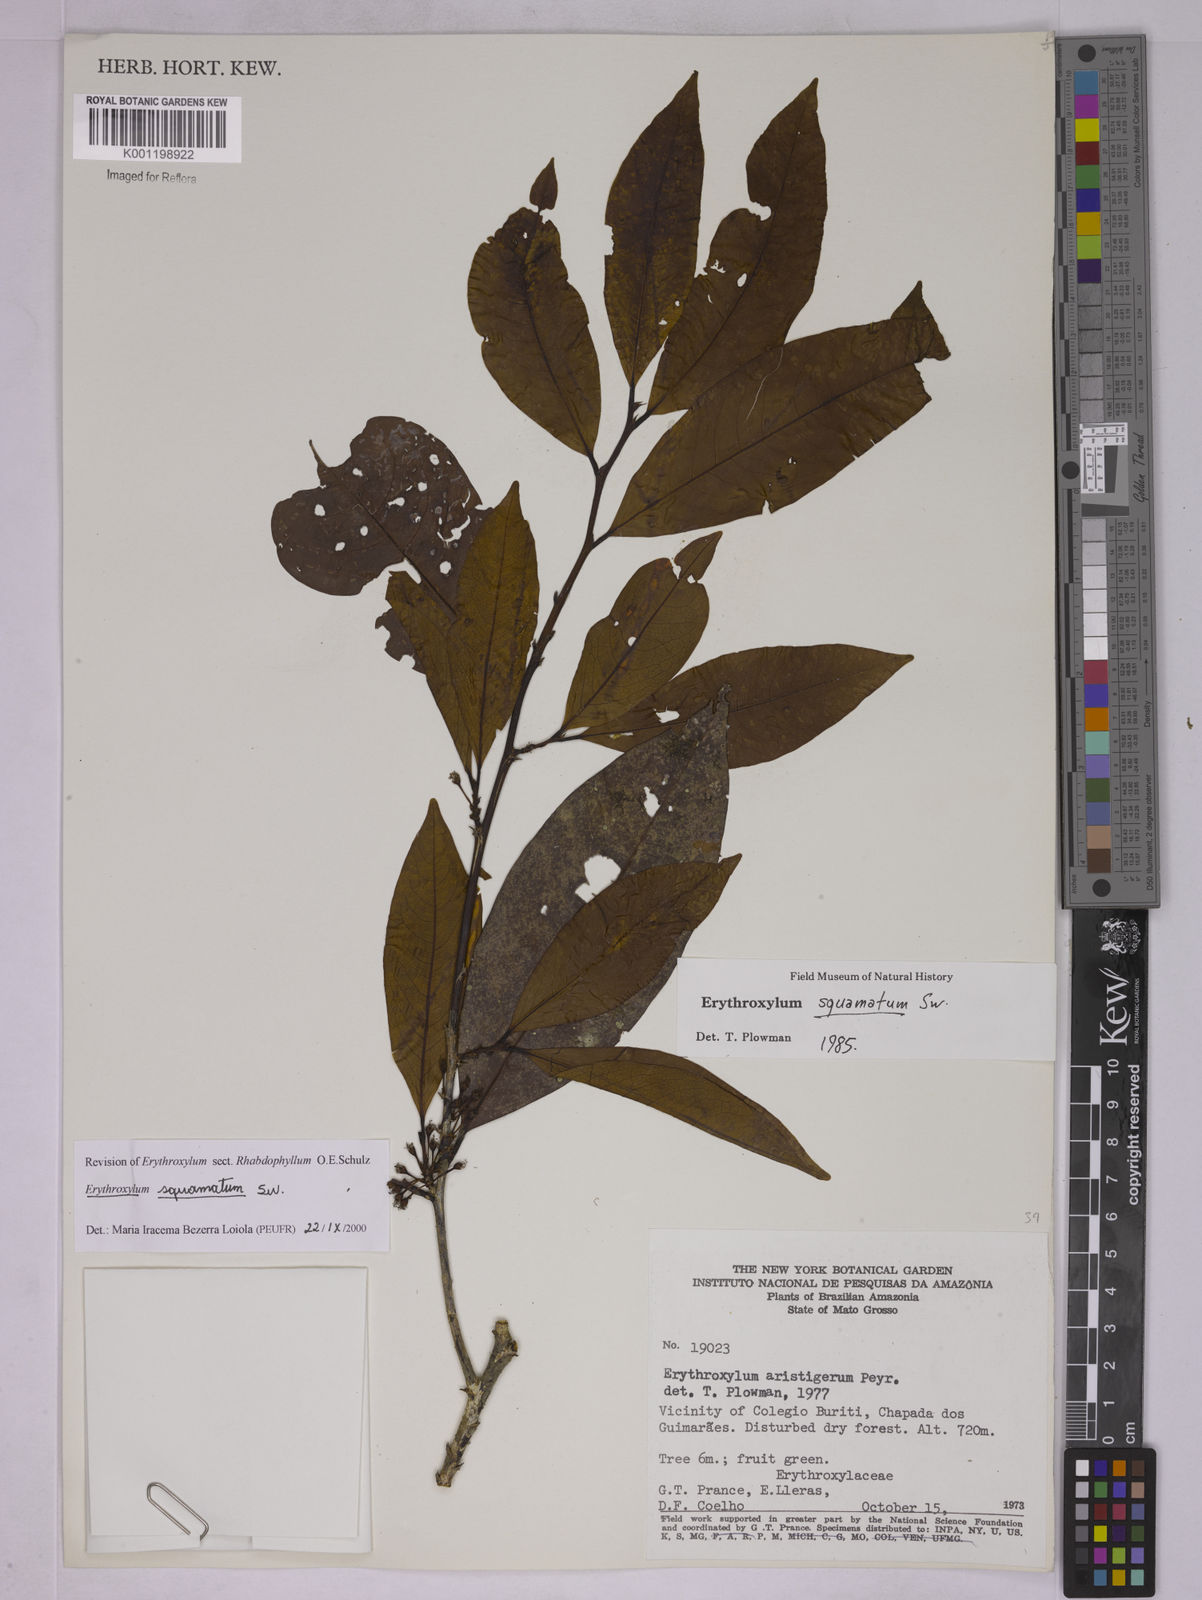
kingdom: Plantae
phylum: Tracheophyta
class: Magnoliopsida
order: Malpighiales
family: Erythroxylaceae
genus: Erythroxylum
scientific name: Erythroxylum squamatum
